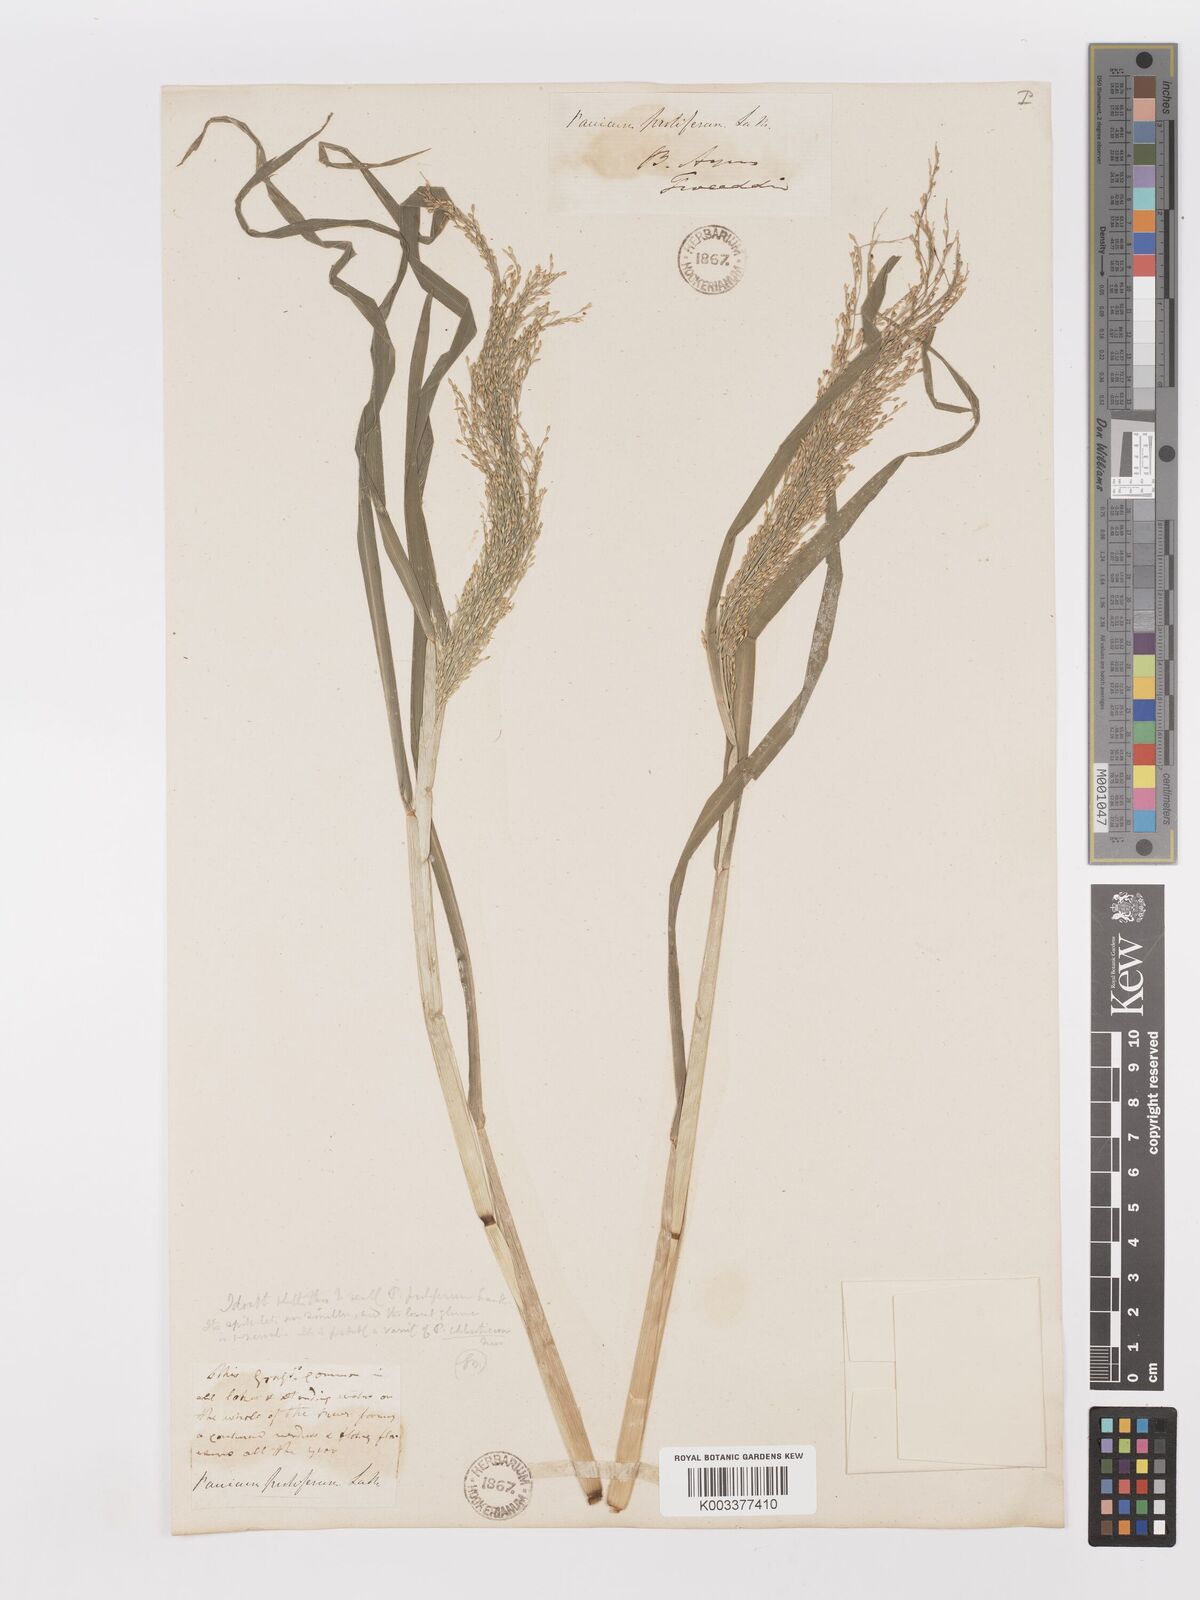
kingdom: Plantae
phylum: Tracheophyta
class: Liliopsida
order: Poales
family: Poaceae
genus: Panicum
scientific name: Panicum dichotomiflorum
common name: Autumn millet
